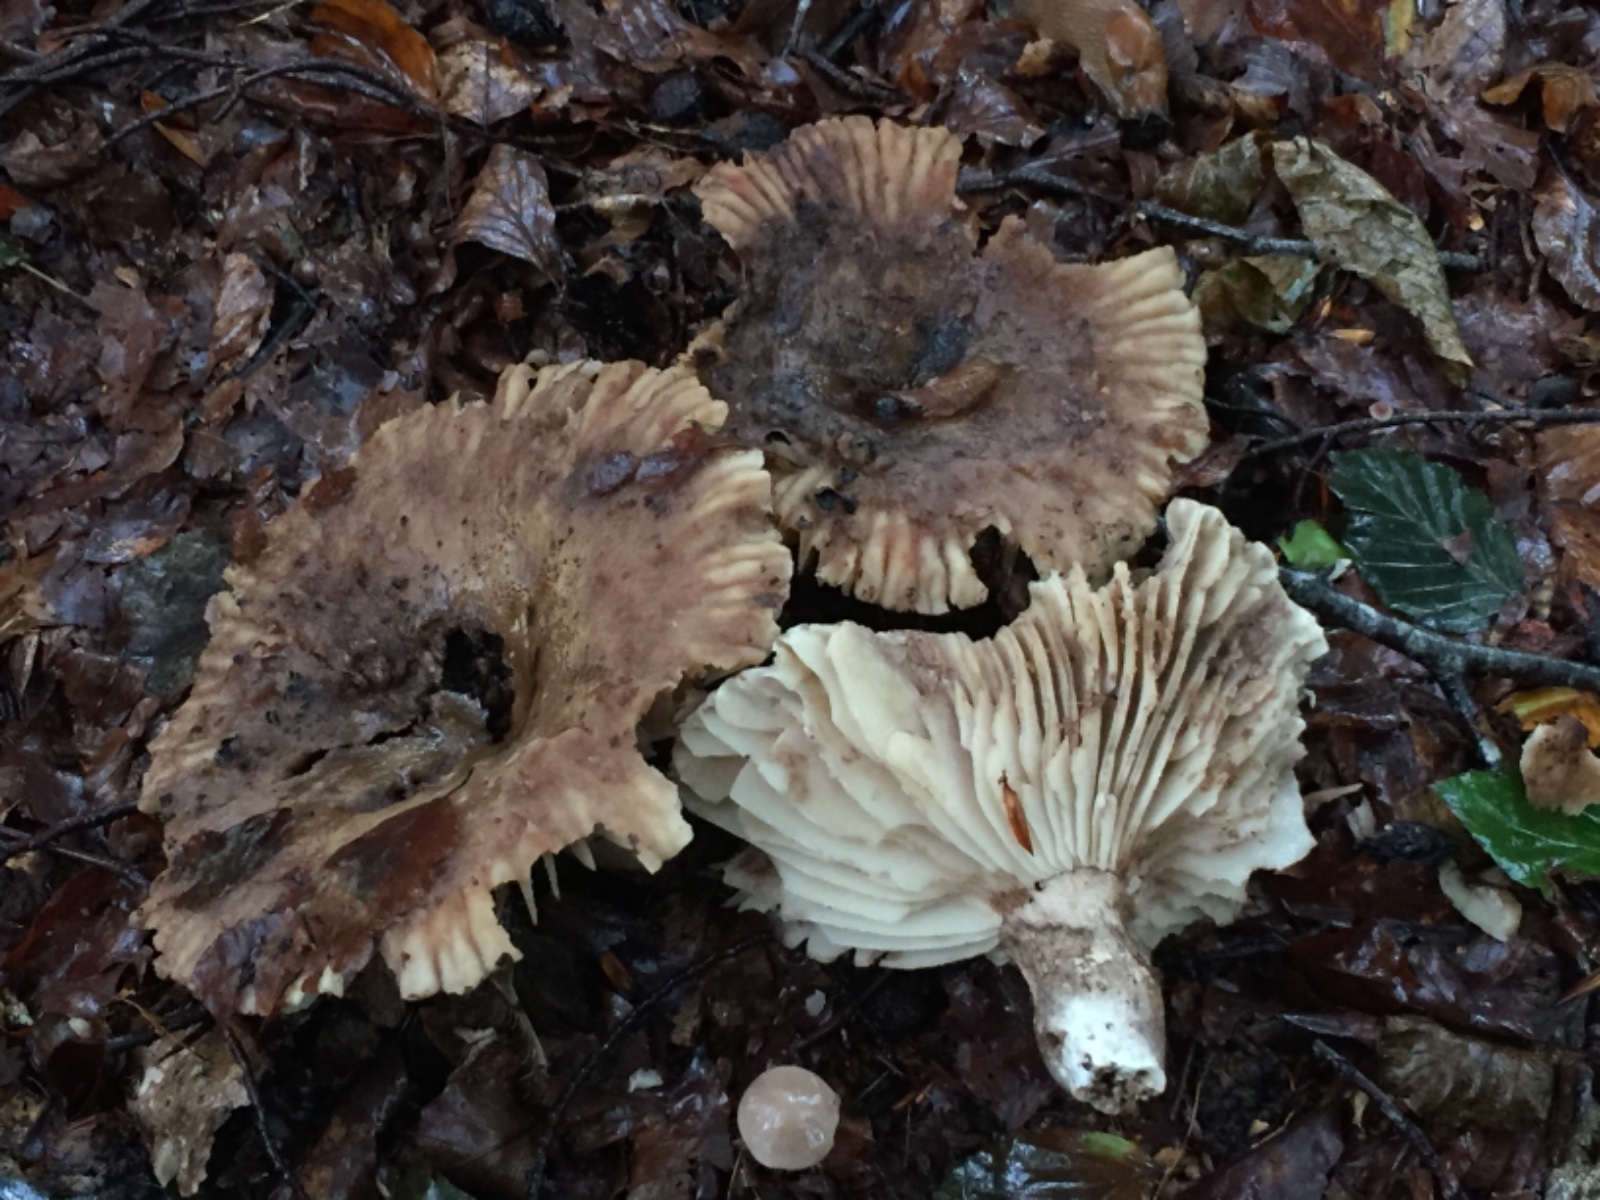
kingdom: Fungi
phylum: Basidiomycota
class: Agaricomycetes
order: Russulales
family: Russulaceae
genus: Russula
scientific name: Russula adusta
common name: sværtende skørhat
